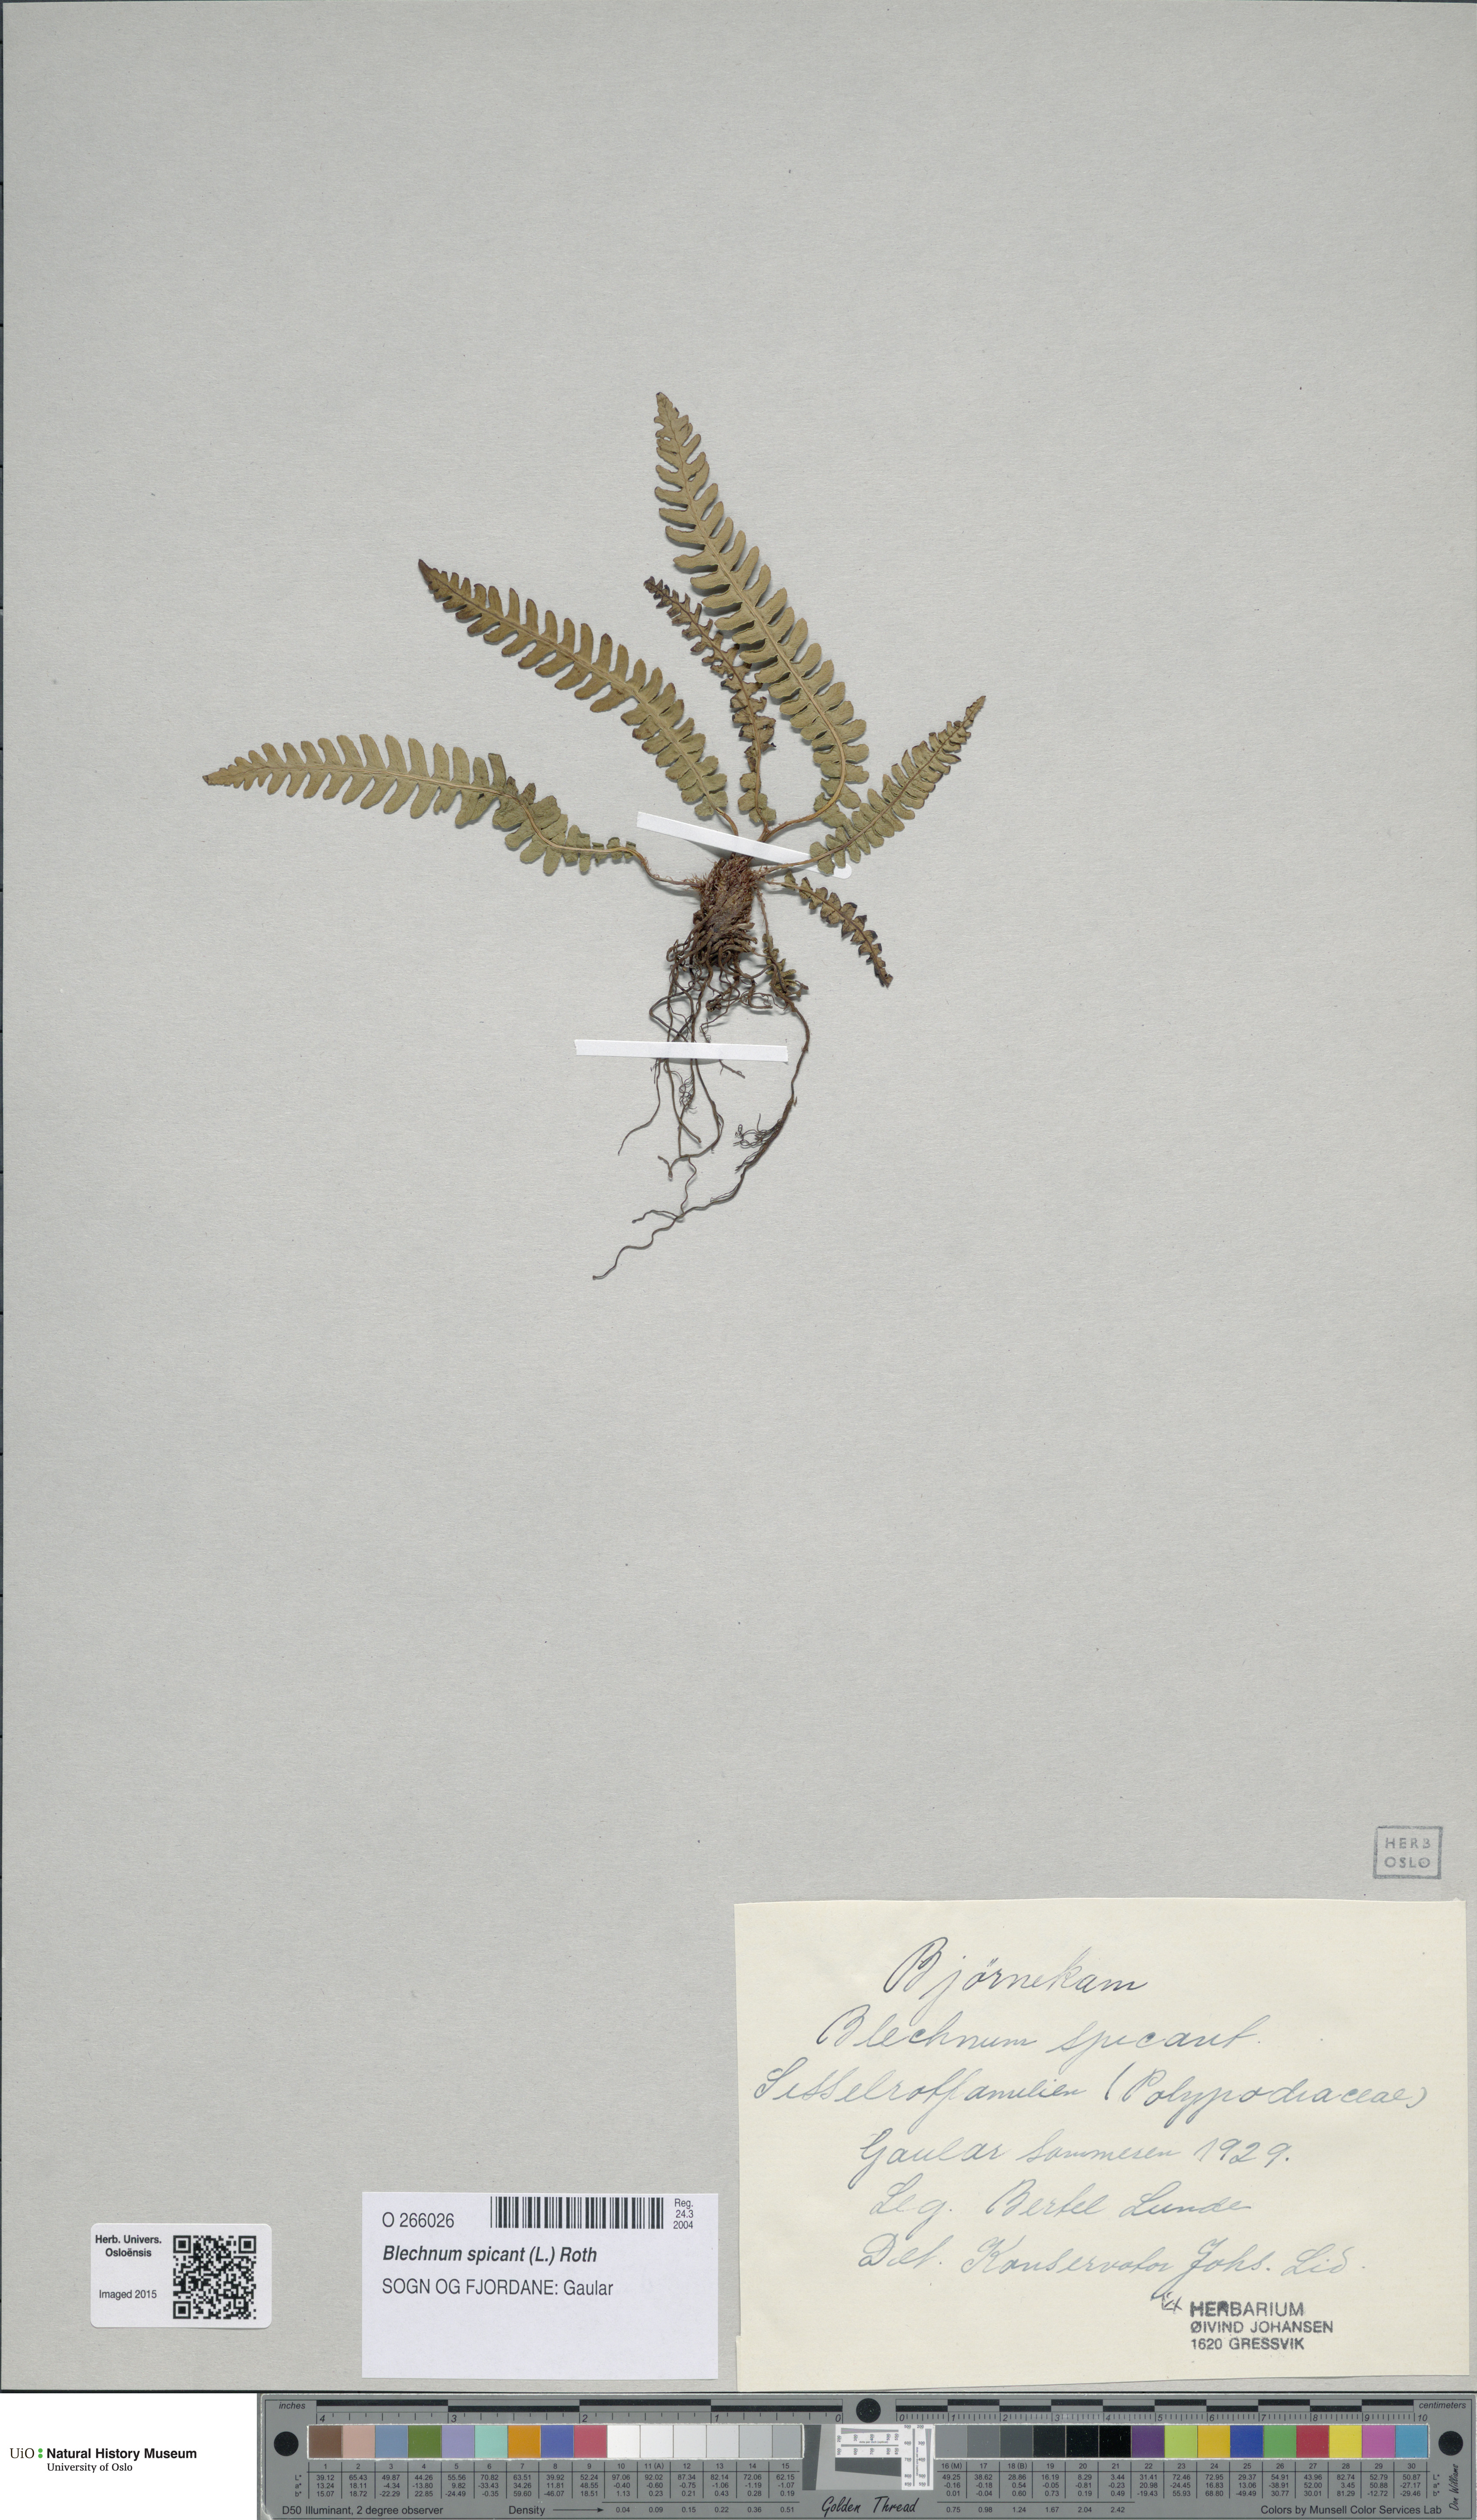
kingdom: Plantae
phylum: Tracheophyta
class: Polypodiopsida
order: Polypodiales
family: Blechnaceae
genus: Struthiopteris
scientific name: Struthiopteris spicant
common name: Deer fern
